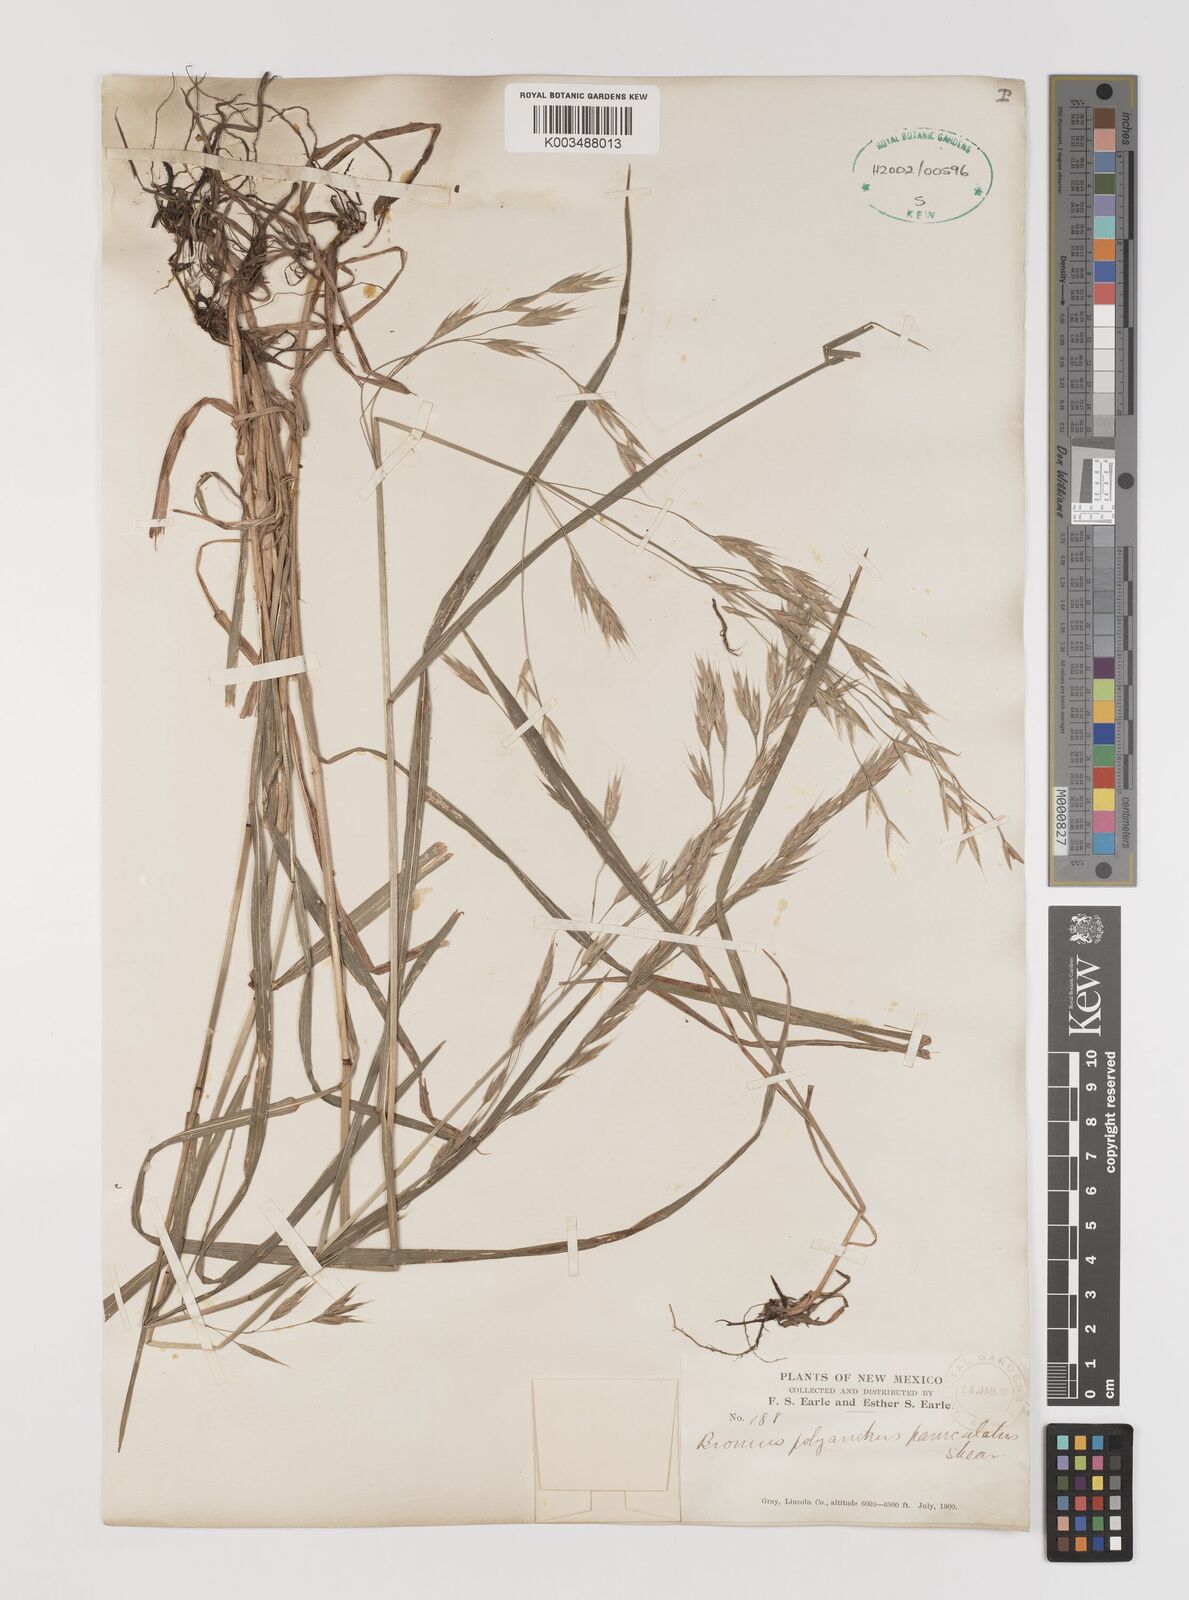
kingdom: Plantae
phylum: Tracheophyta
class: Liliopsida
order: Poales
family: Poaceae
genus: Bromus
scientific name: Bromus polyanthus
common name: Great basin brome
